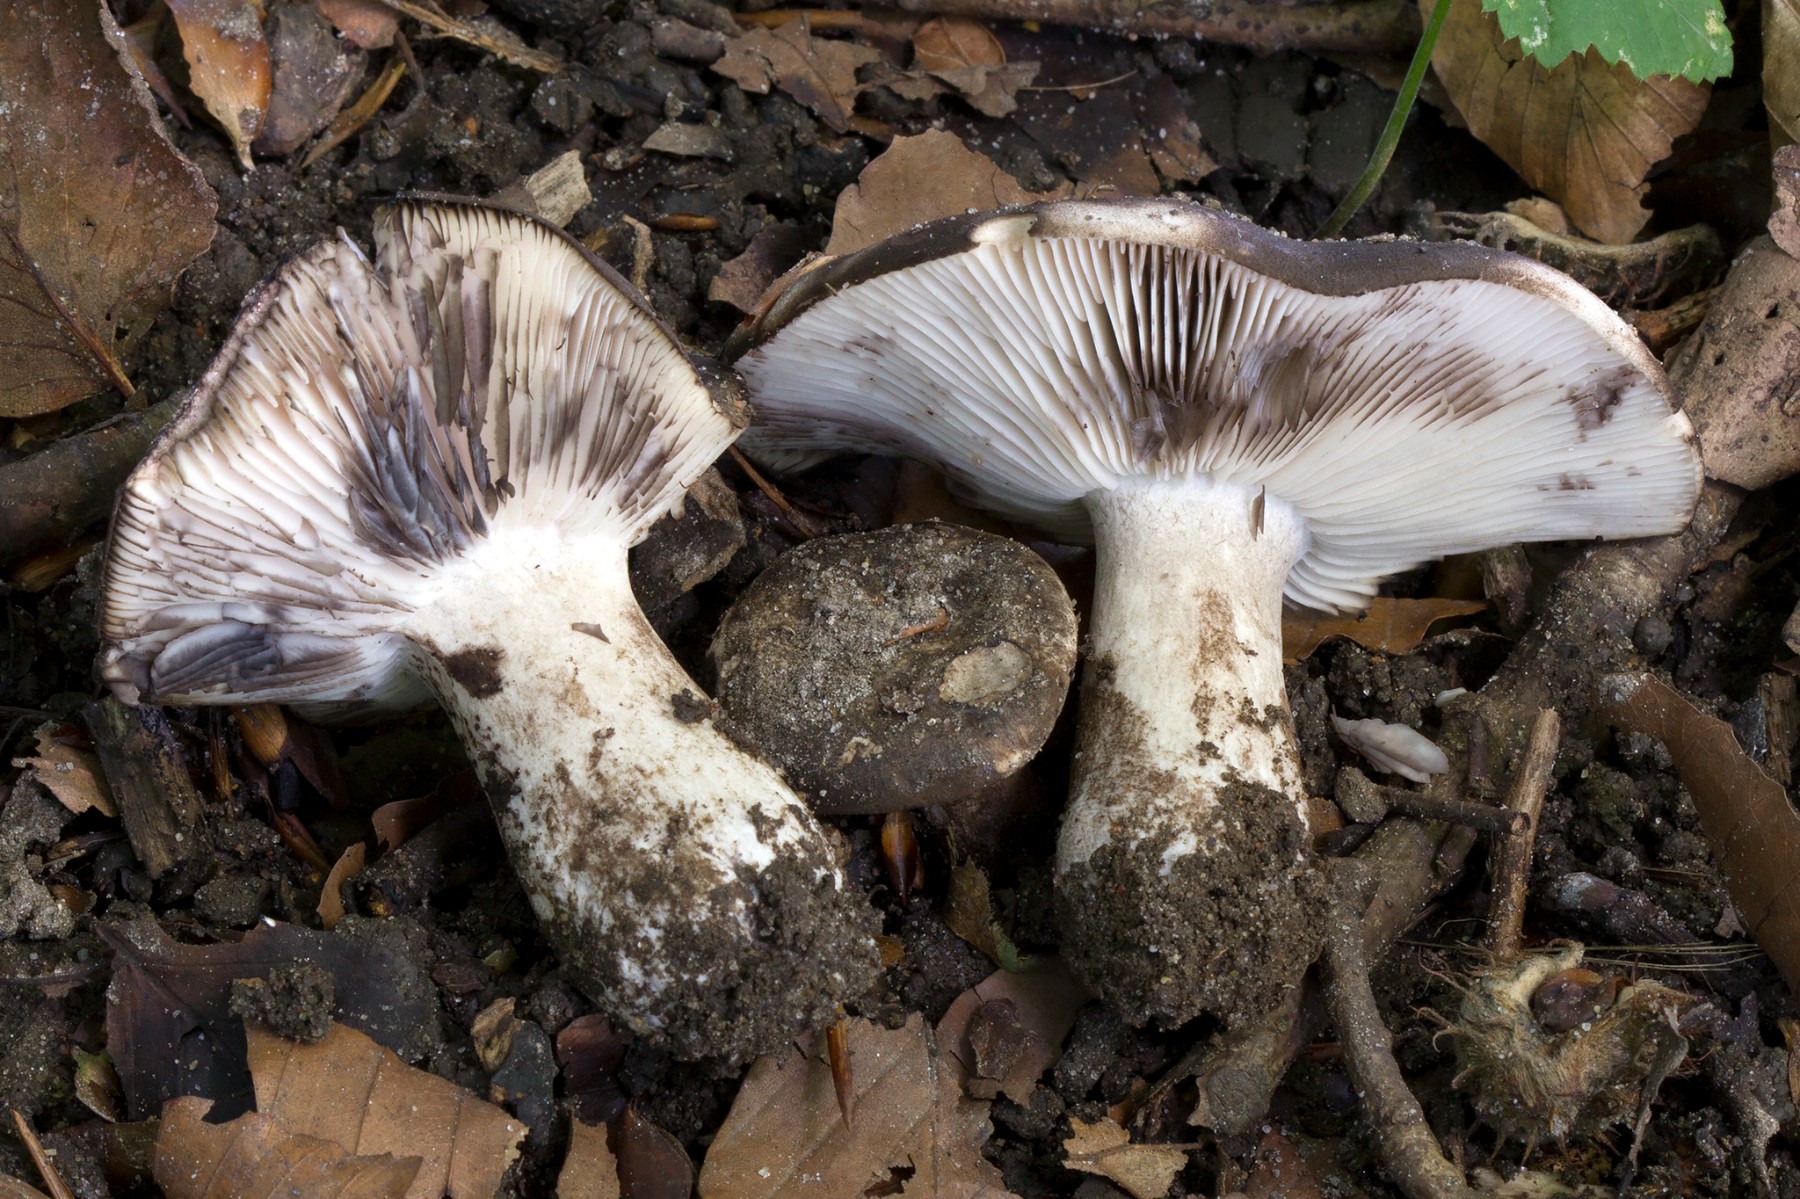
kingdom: Fungi
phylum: Basidiomycota
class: Agaricomycetes
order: Russulales
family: Russulaceae
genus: Russula
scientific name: Russula atramentosa
